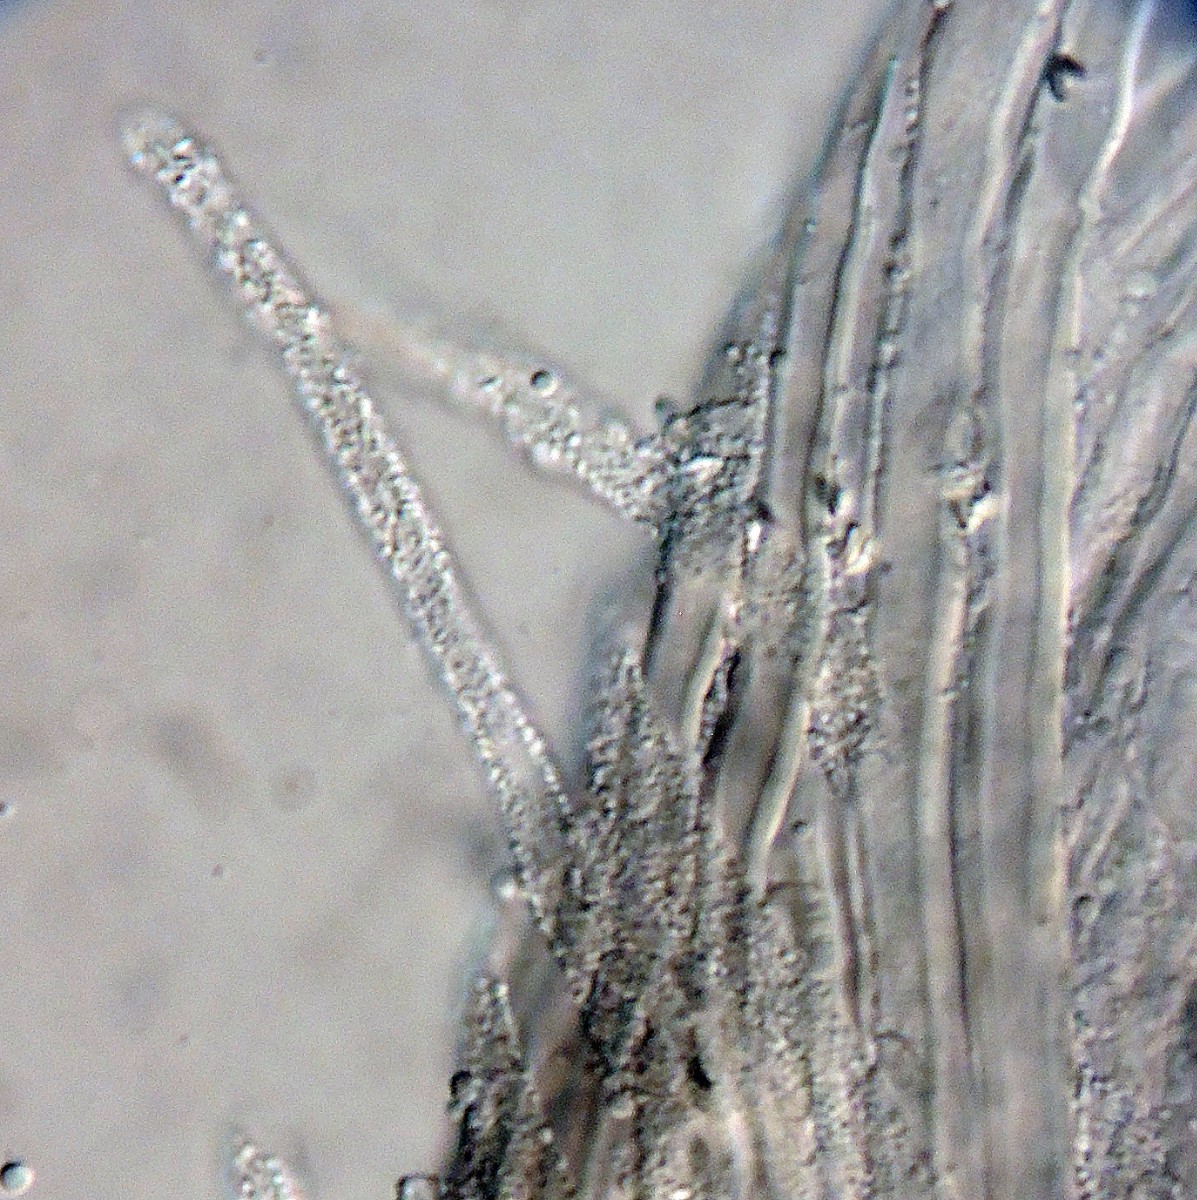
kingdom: Fungi
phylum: Basidiomycota
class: Agaricomycetes
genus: Akenomyces
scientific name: Akenomyces costatus
